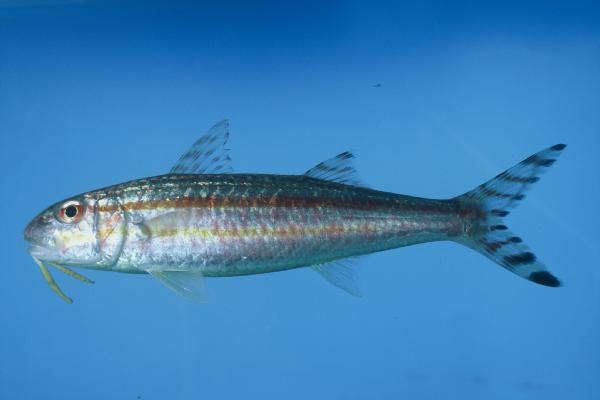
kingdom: Animalia
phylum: Chordata
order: Perciformes
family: Mullidae
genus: Upeneus
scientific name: Upeneus taeniopterus
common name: Band-tail goatfish
